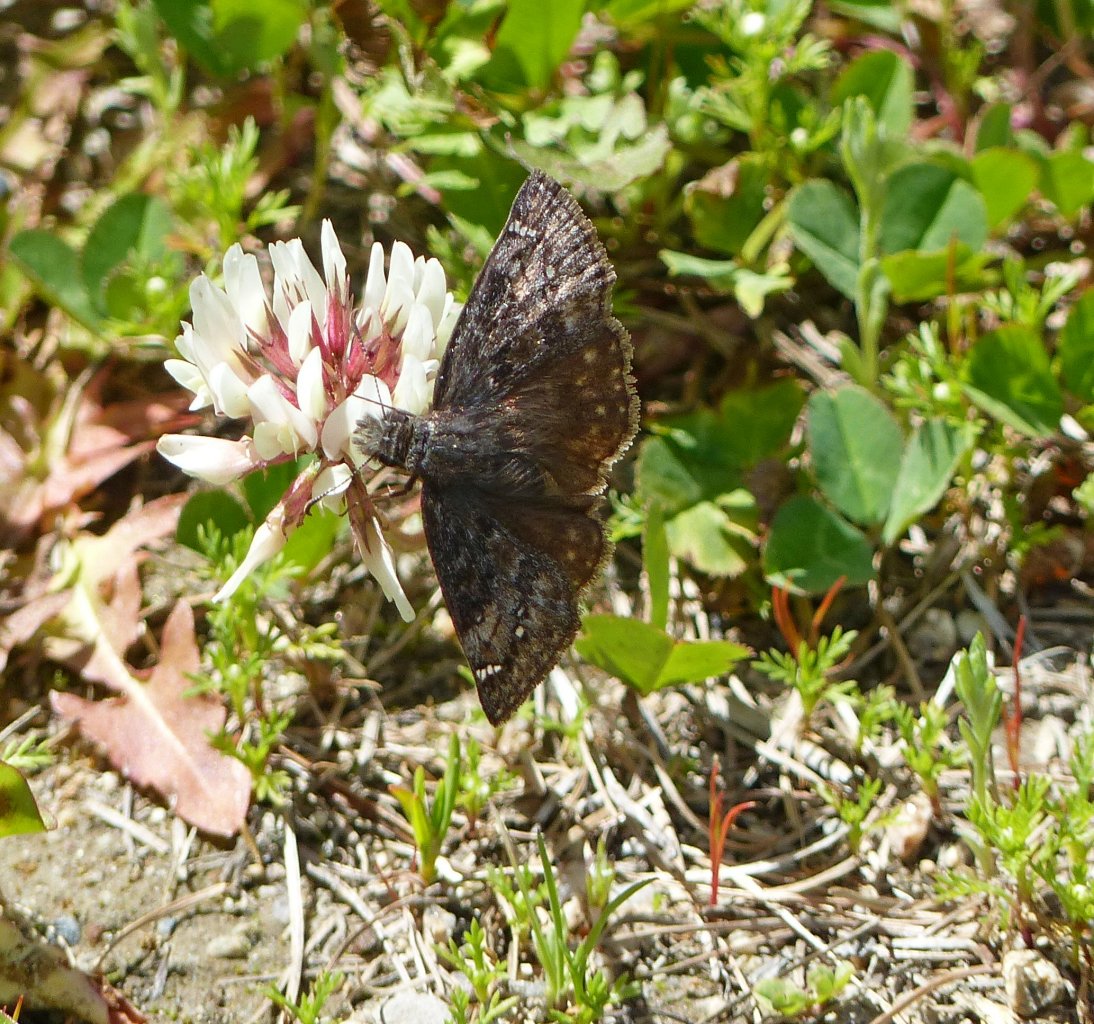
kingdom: Animalia
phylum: Arthropoda
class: Insecta
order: Lepidoptera
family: Hesperiidae
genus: Gesta
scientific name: Gesta
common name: Persius Duskywing
